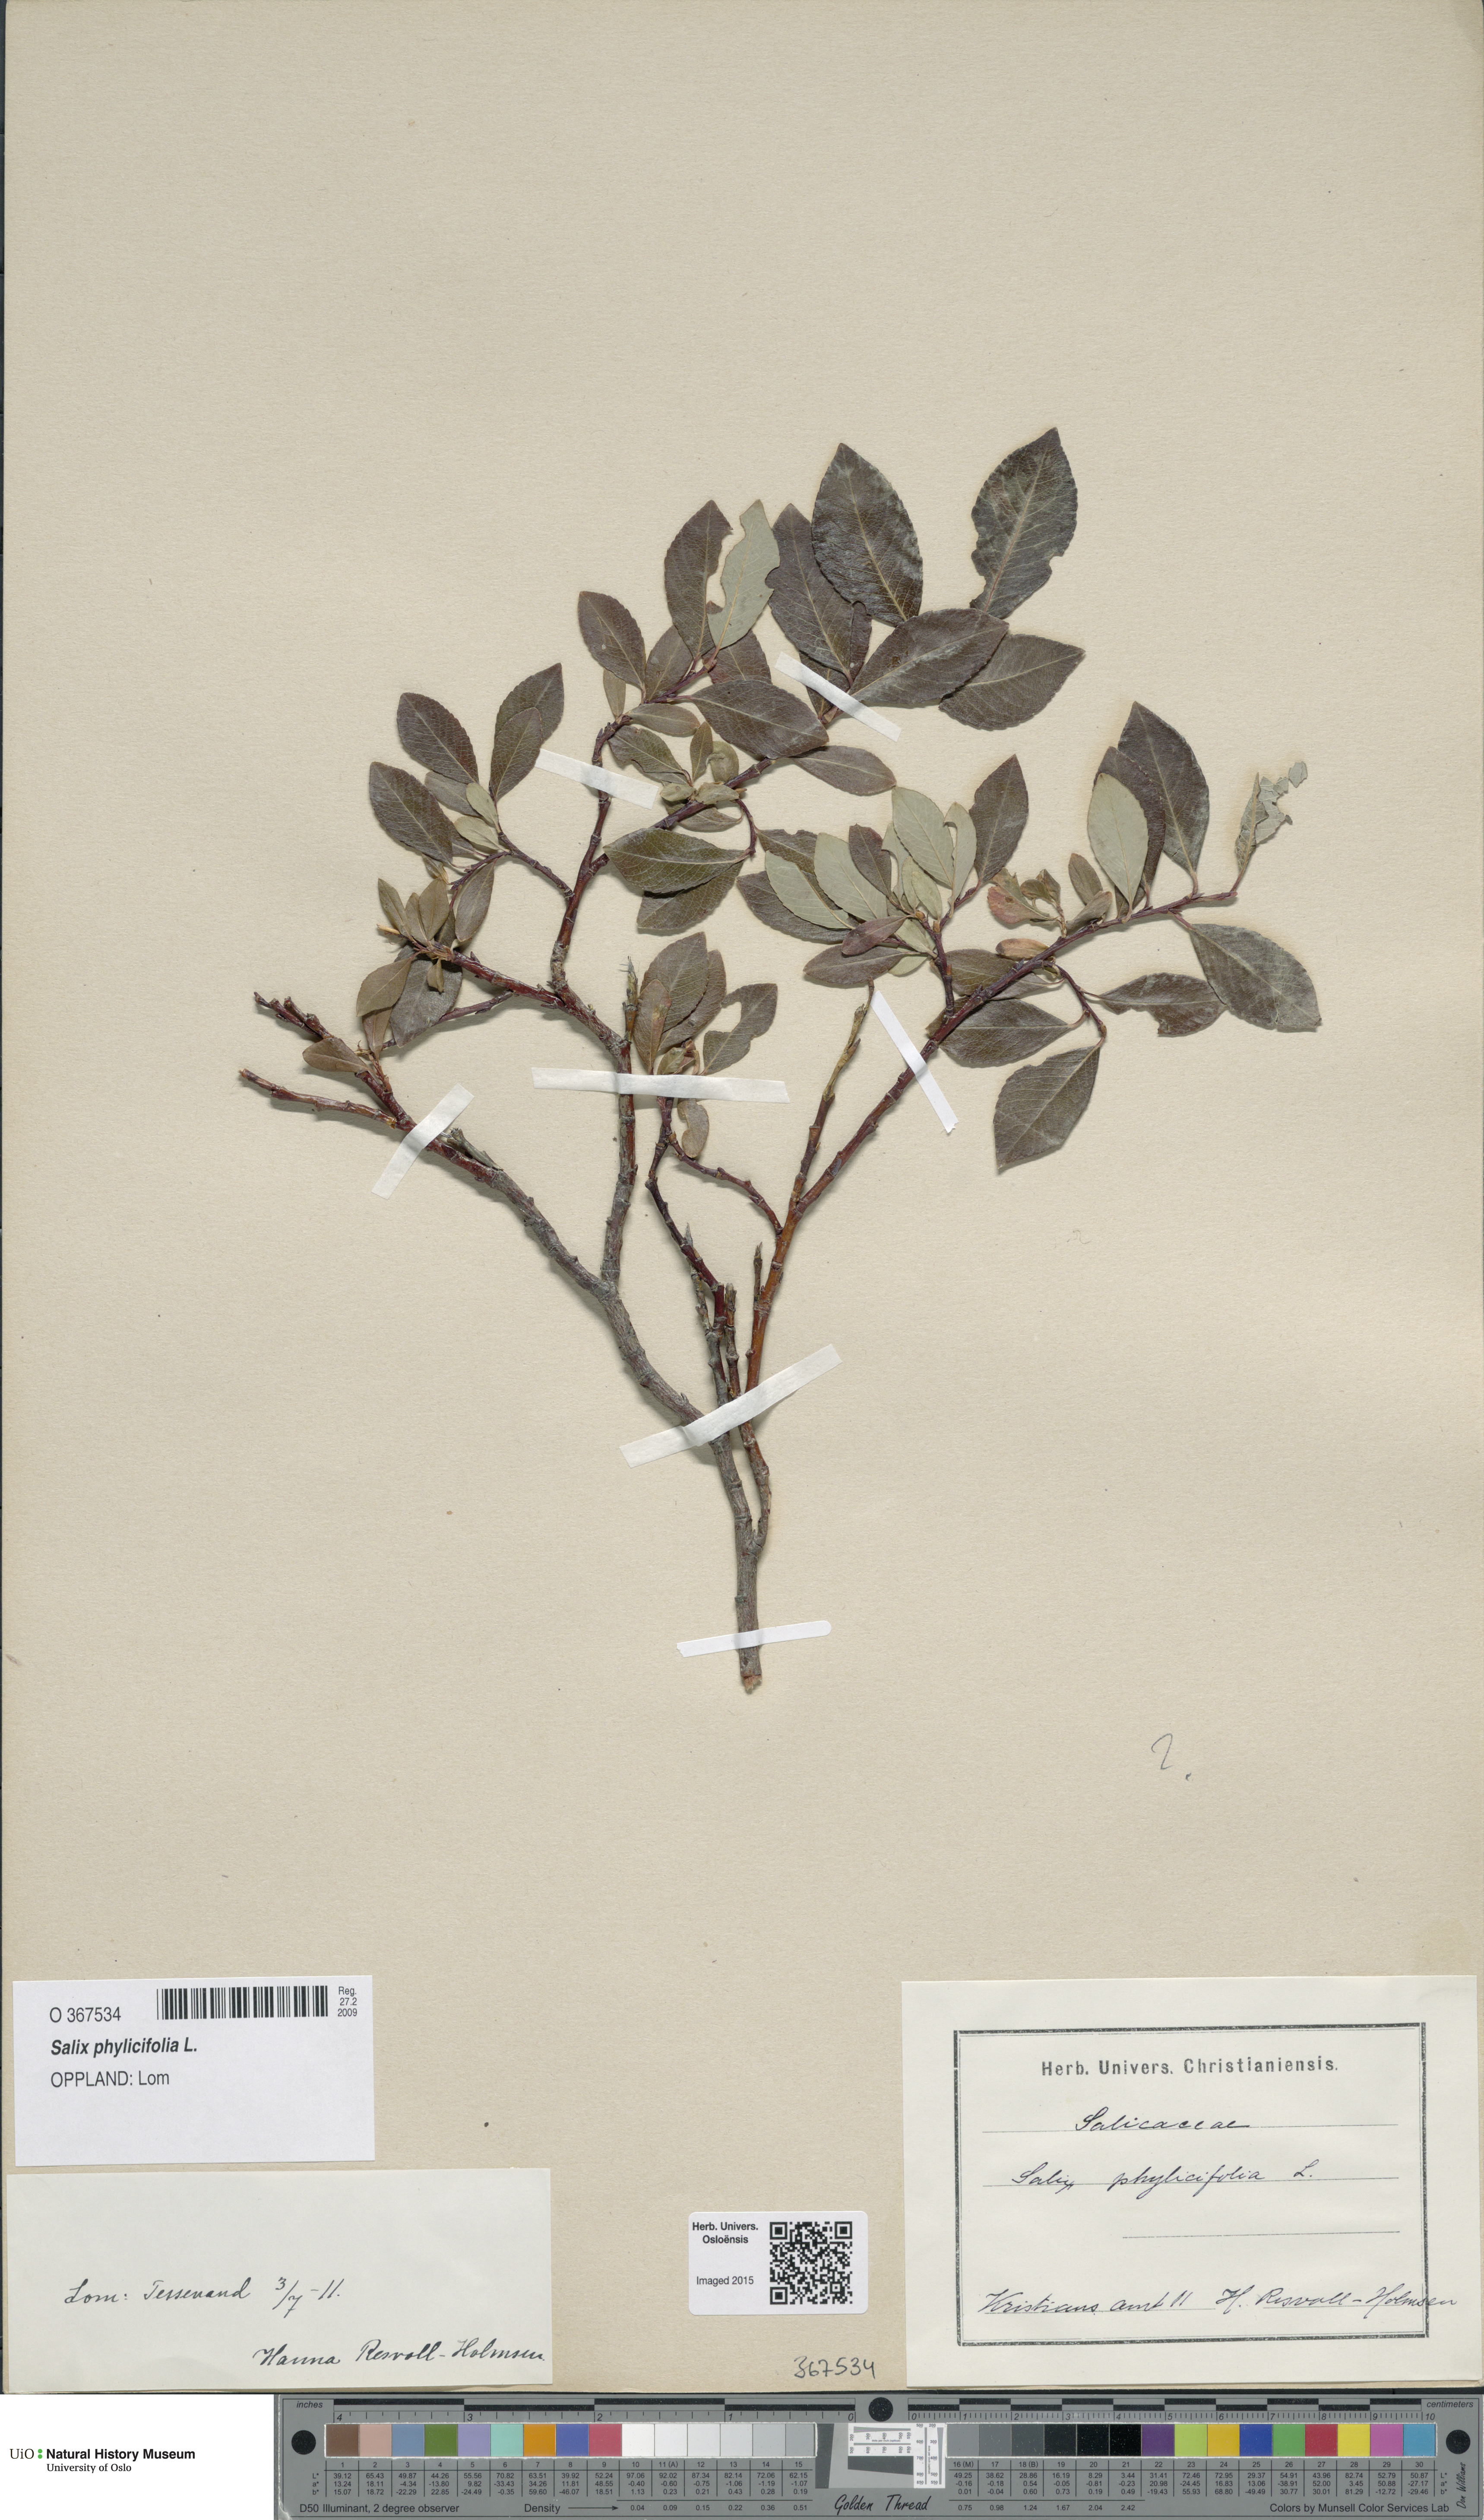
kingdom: Plantae
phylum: Tracheophyta
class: Magnoliopsida
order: Malpighiales
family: Salicaceae
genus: Salix
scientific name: Salix phylicifolia
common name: Tea-leaved willow
